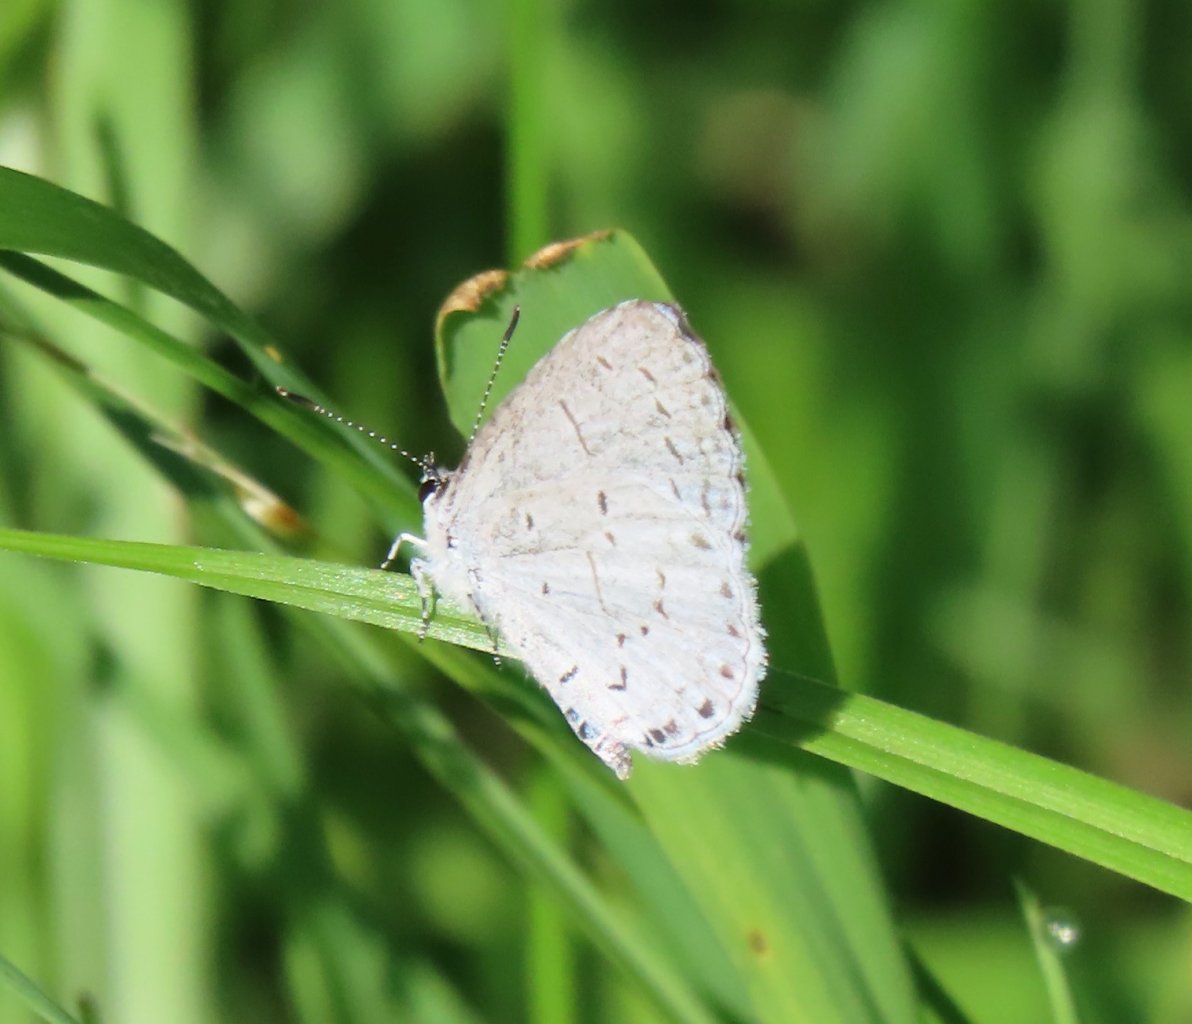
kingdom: Animalia
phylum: Arthropoda
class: Insecta
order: Lepidoptera
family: Lycaenidae
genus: Cyaniris
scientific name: Cyaniris neglecta
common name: Summer Azure
